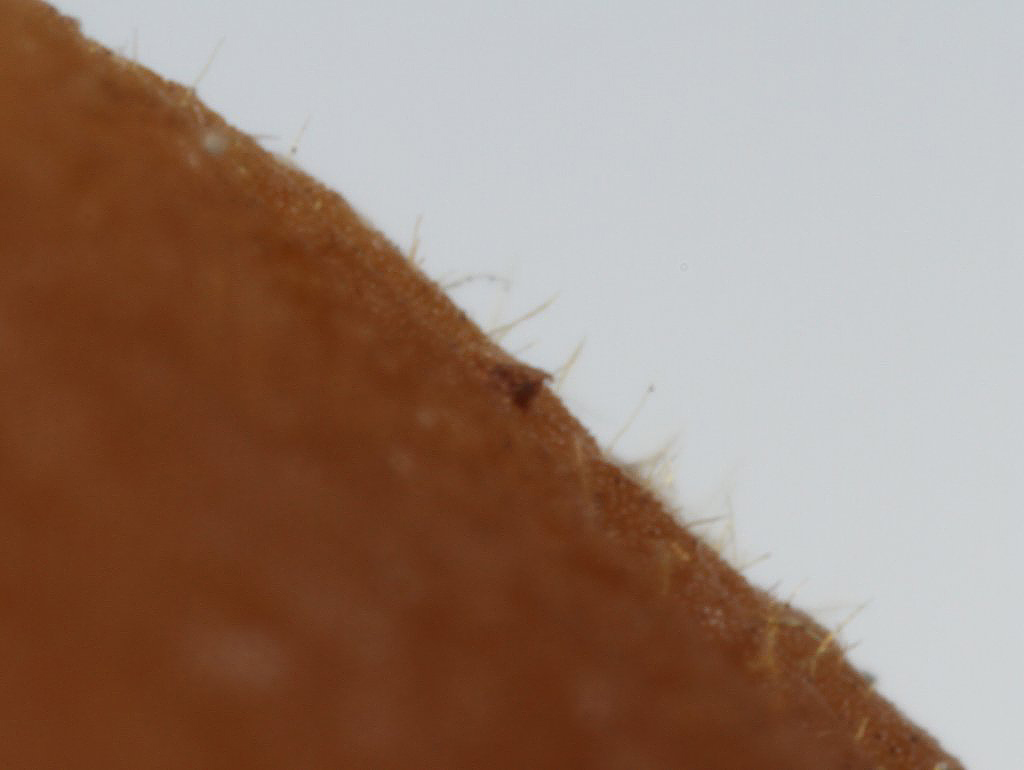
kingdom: Fungi
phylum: Basidiomycota
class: Agaricomycetes
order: Agaricales
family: Psathyrellaceae
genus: Parasola
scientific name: Parasola conopilea
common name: kegle-hjulhat
